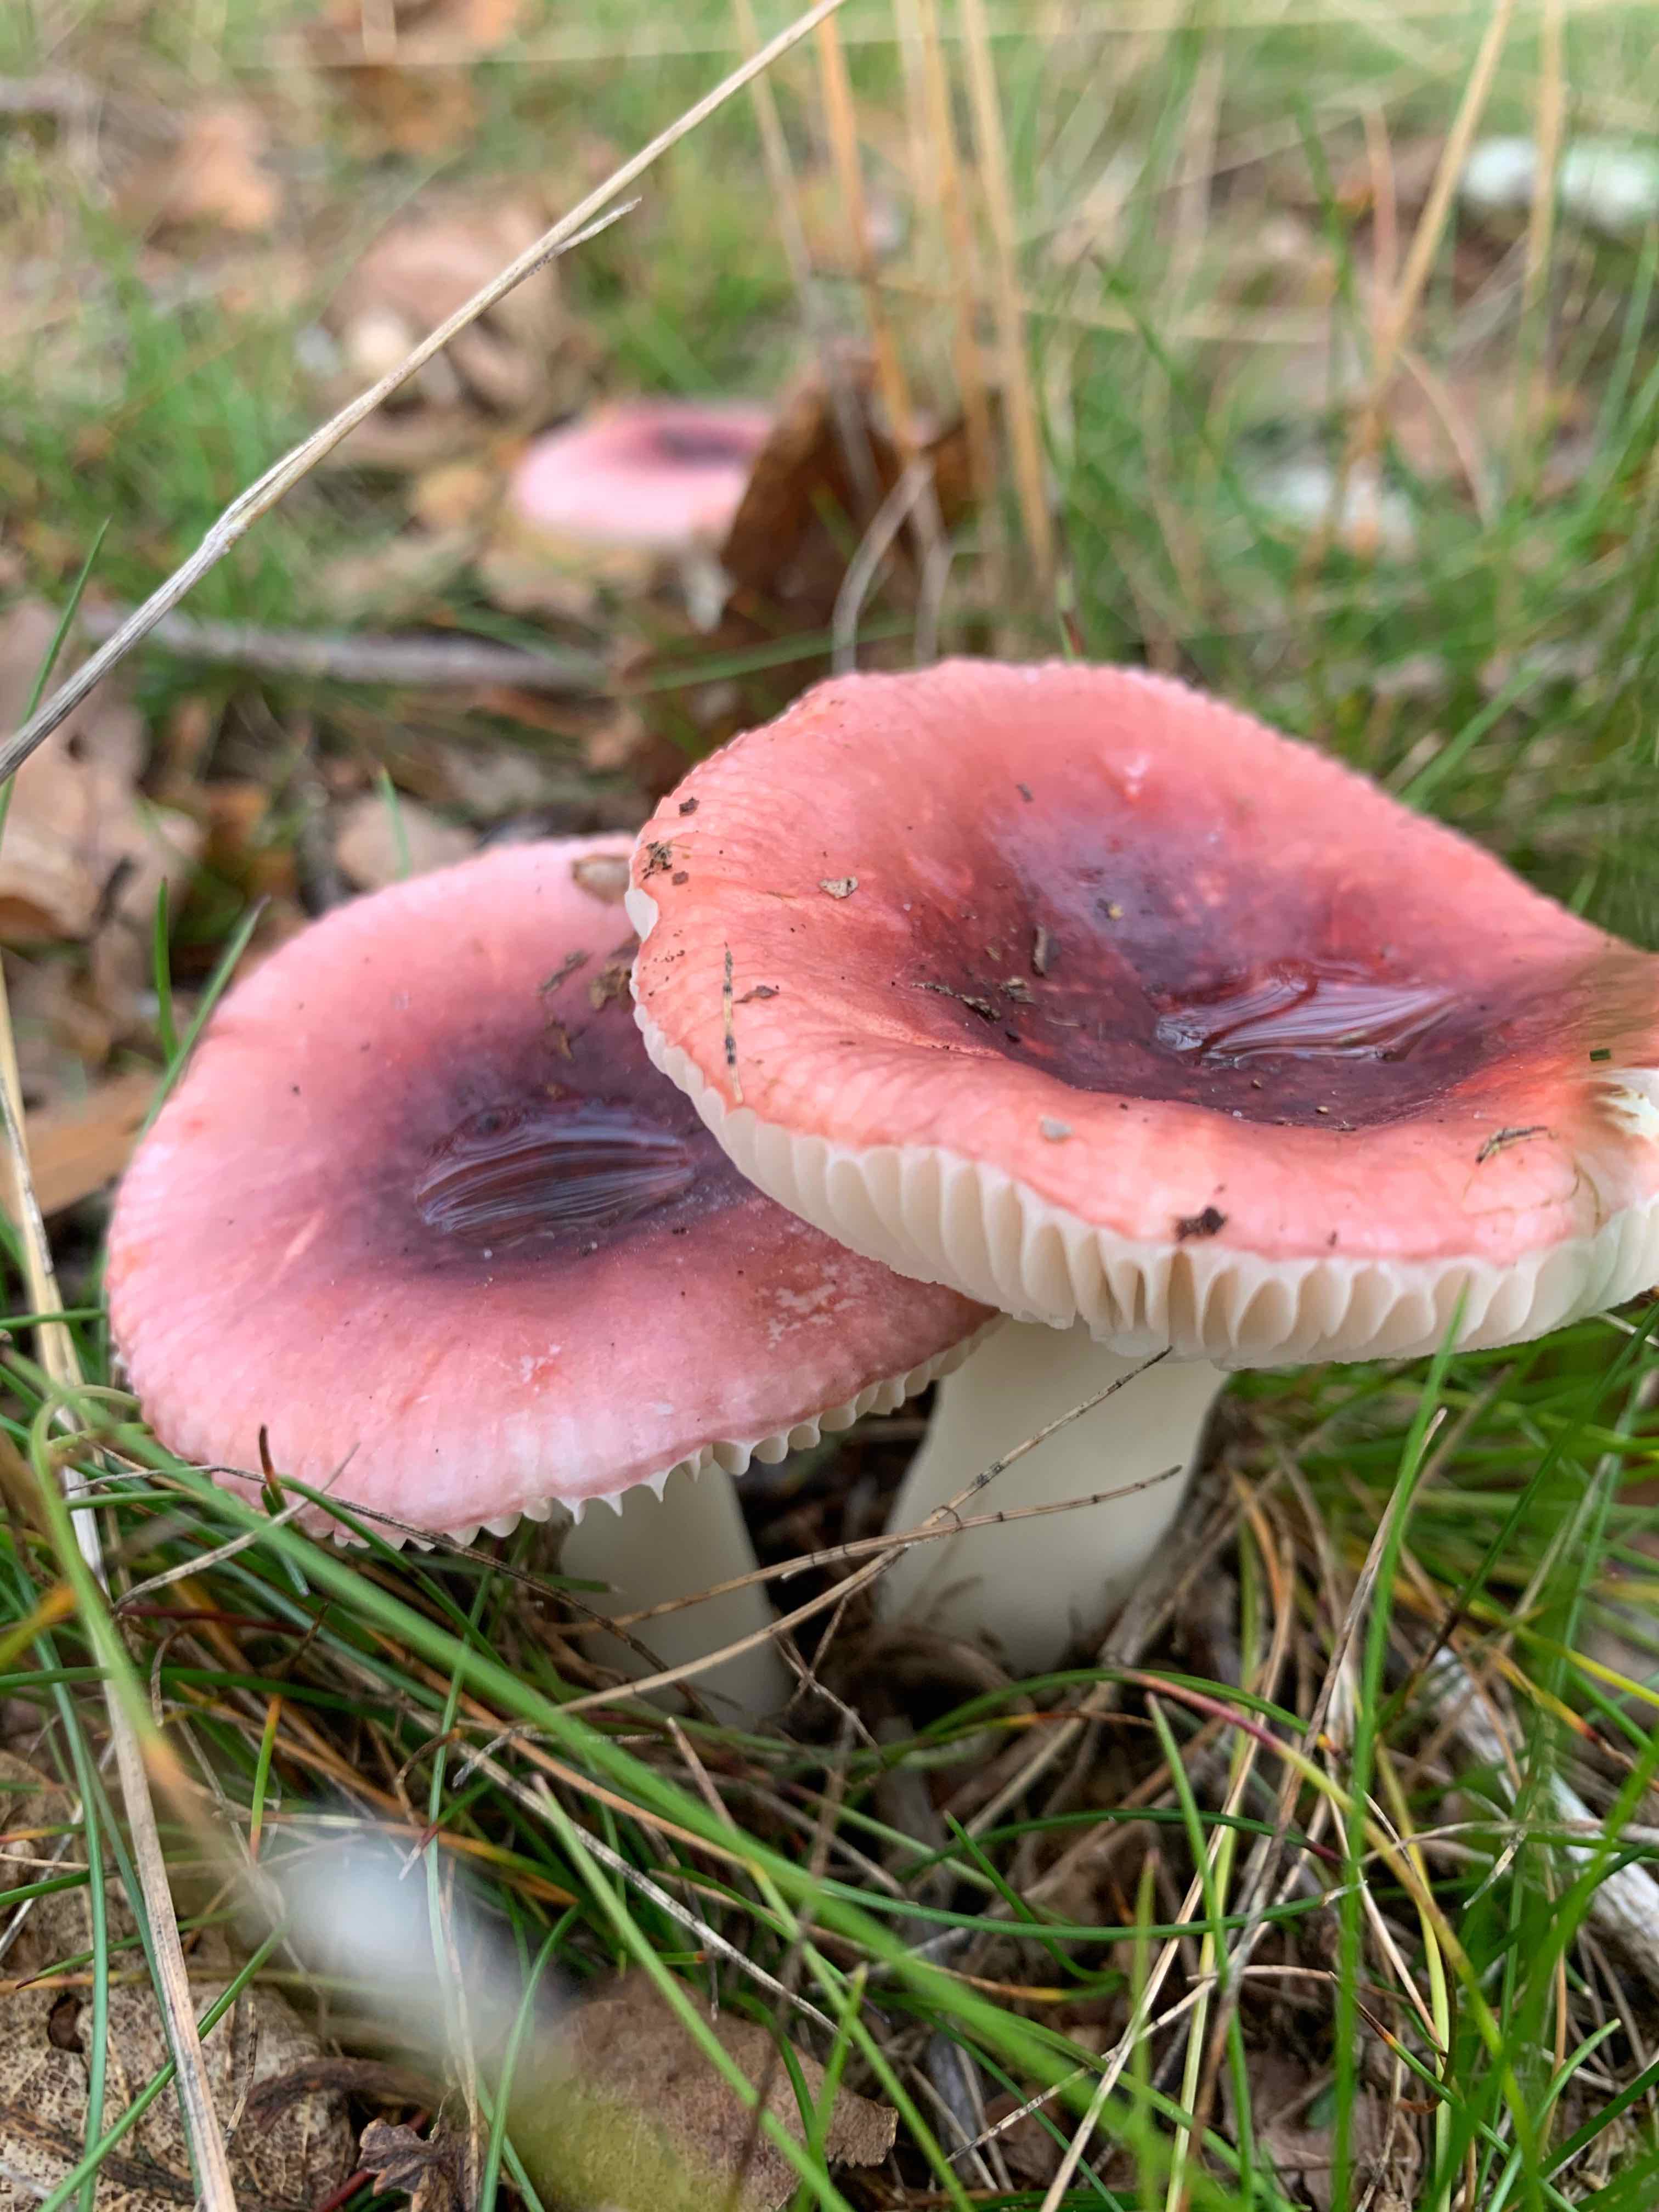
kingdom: Fungi
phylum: Basidiomycota
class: Agaricomycetes
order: Russulales
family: Russulaceae
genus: Russula
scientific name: Russula
